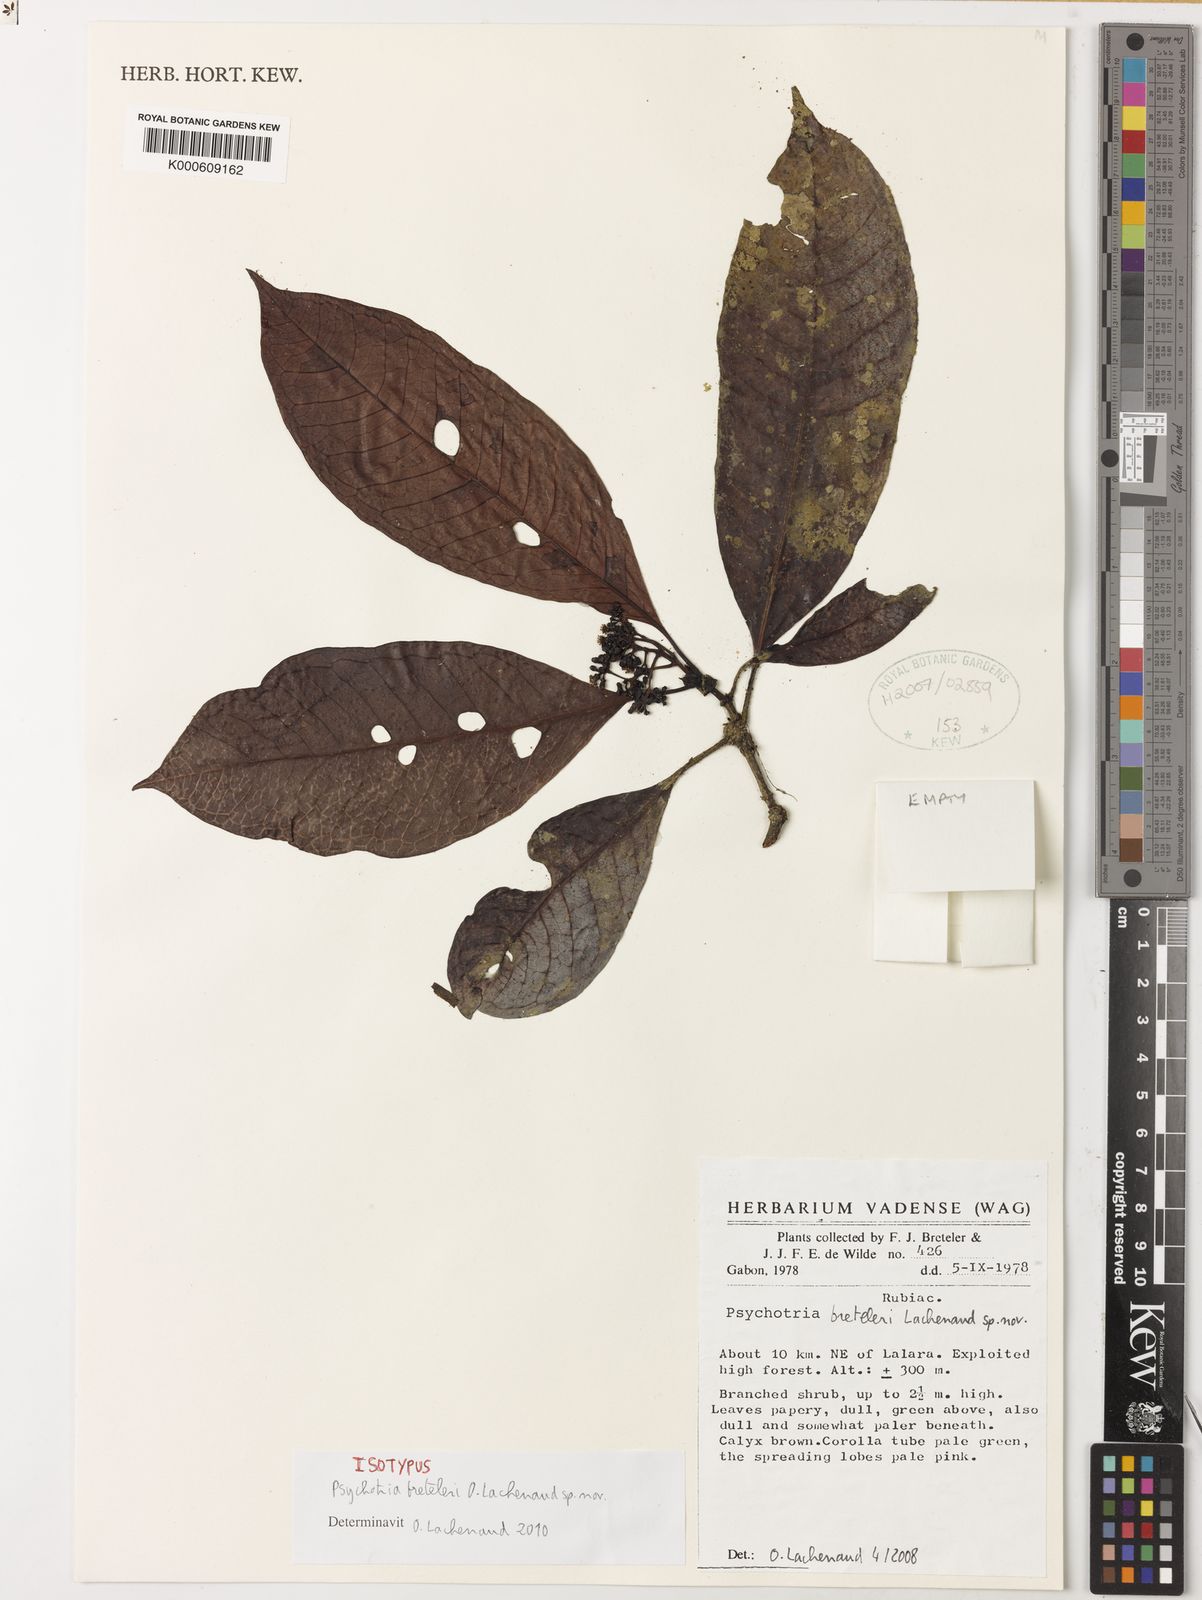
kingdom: Plantae
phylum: Tracheophyta
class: Magnoliopsida
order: Gentianales
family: Rubiaceae
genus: Psychotria
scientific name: Psychotria breteleri
